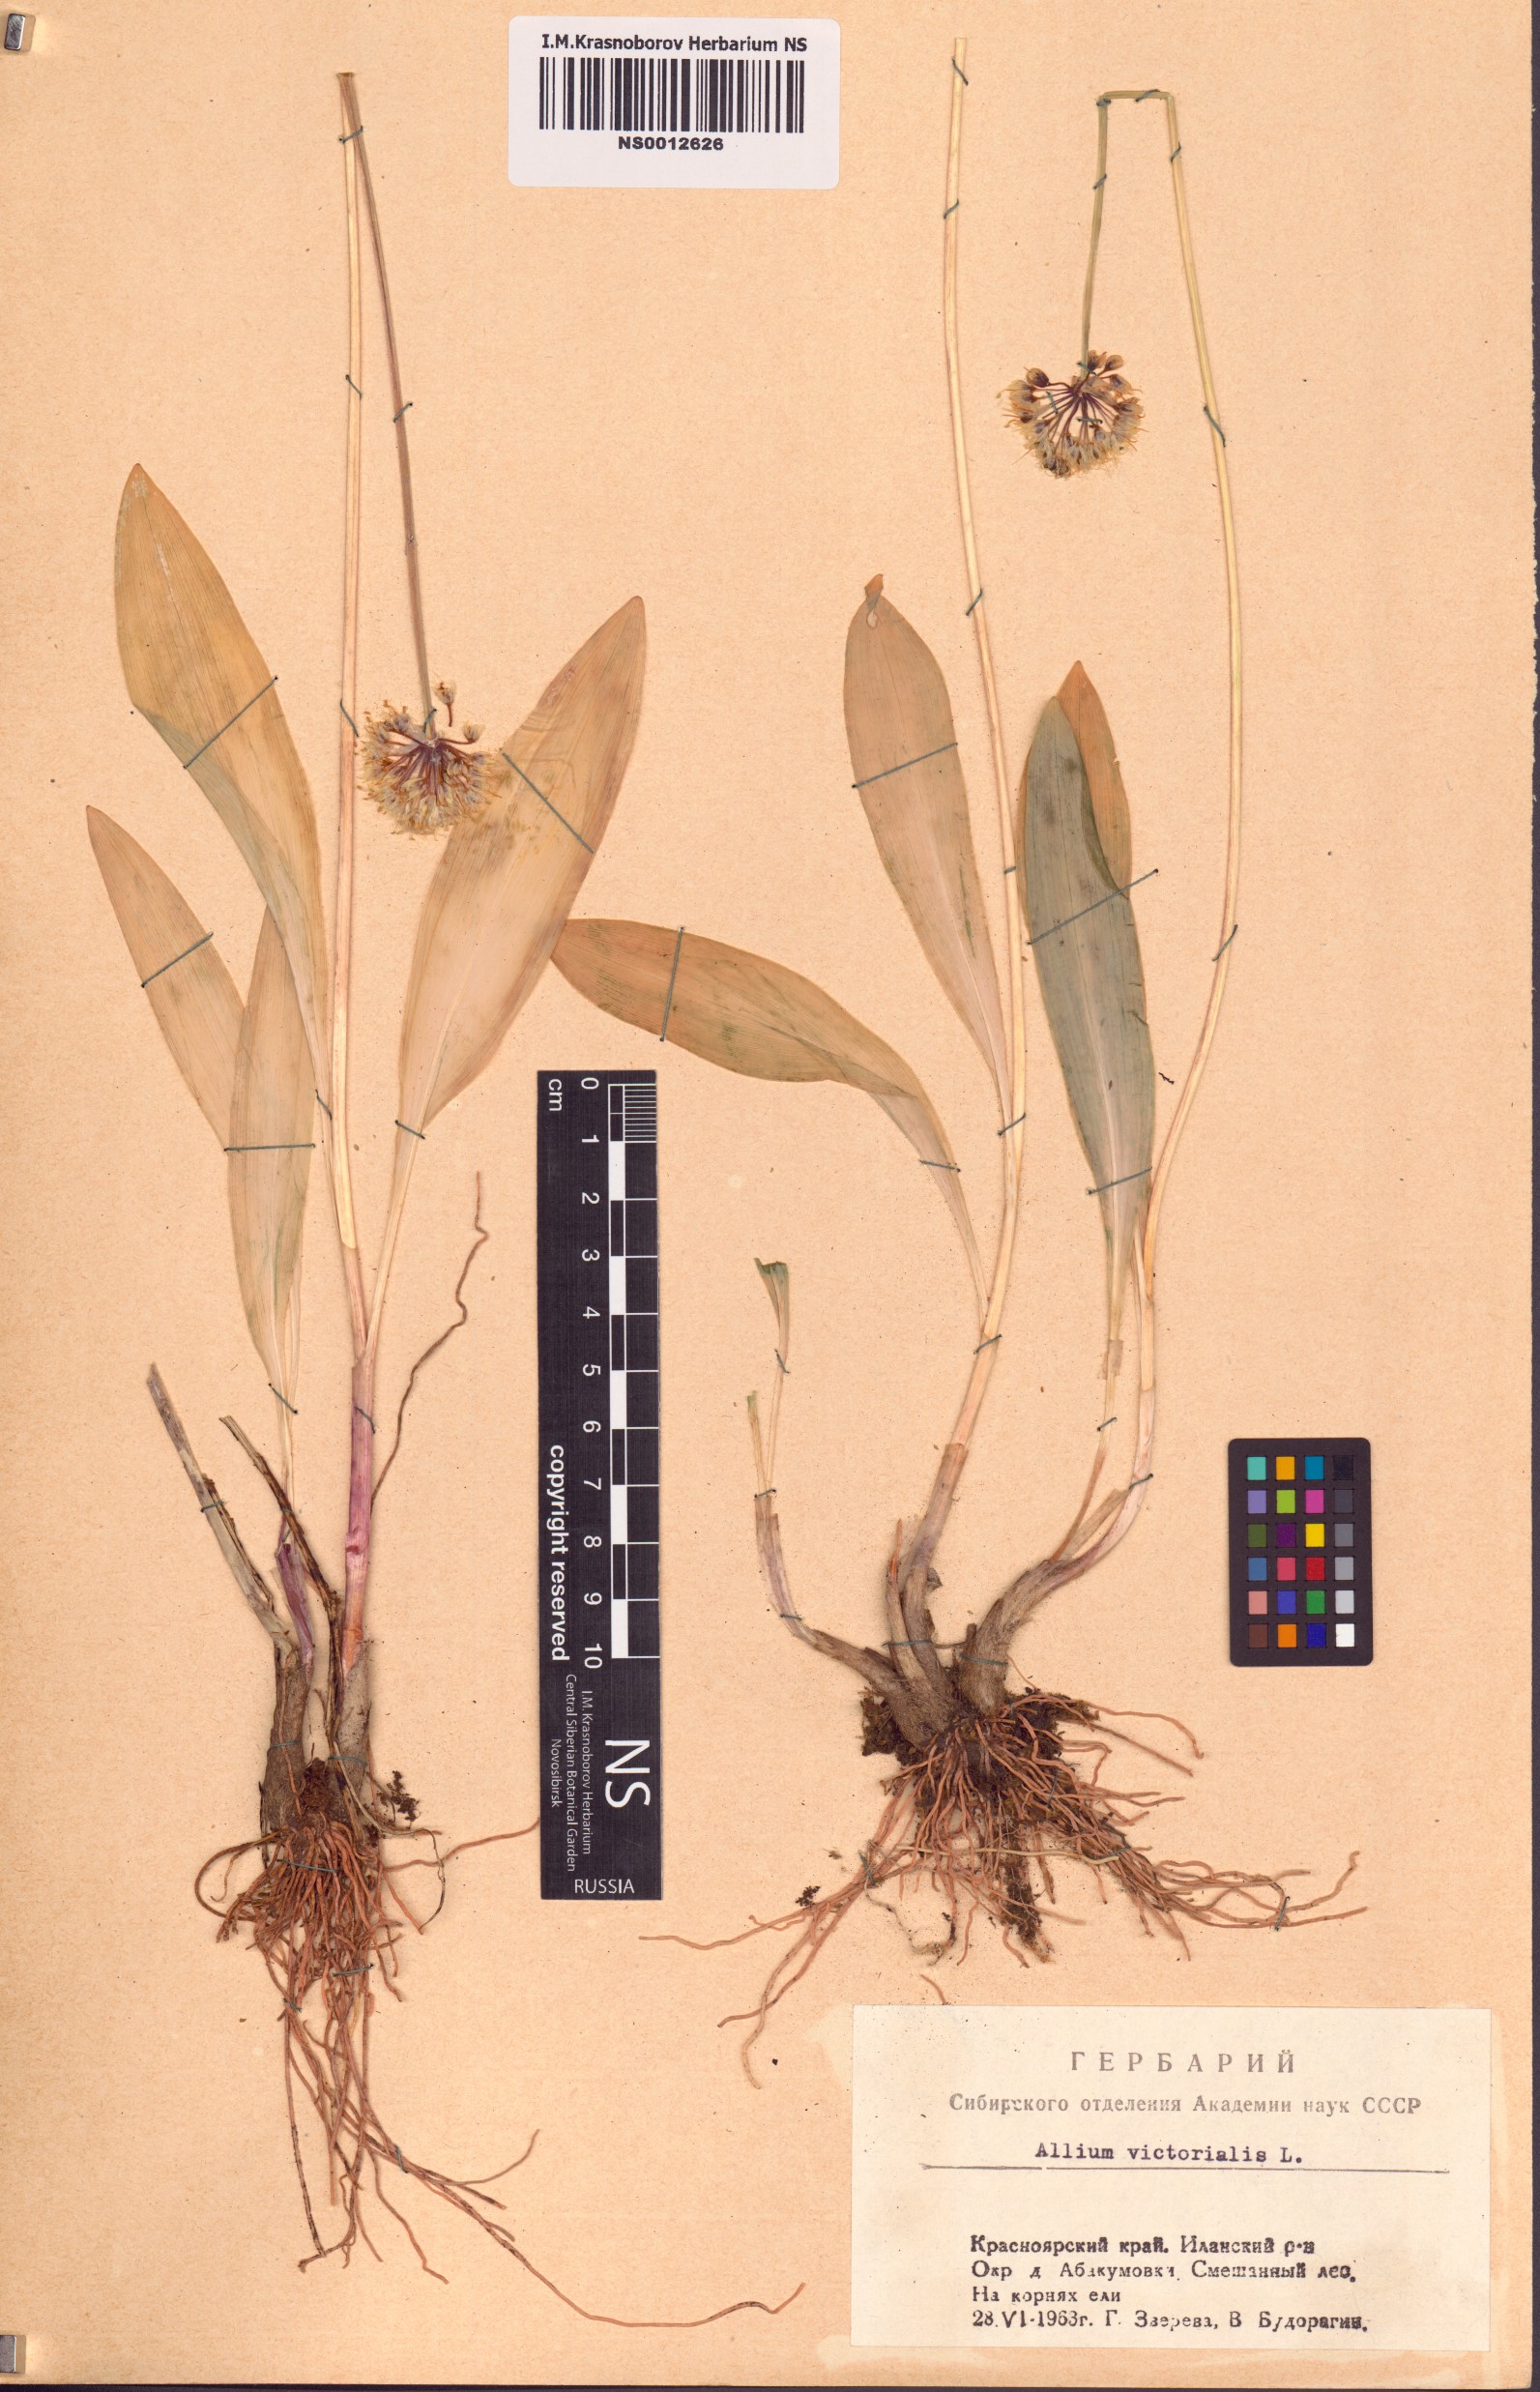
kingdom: Plantae
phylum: Tracheophyta
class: Liliopsida
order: Asparagales
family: Amaryllidaceae
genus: Allium
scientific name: Allium microdictyon
